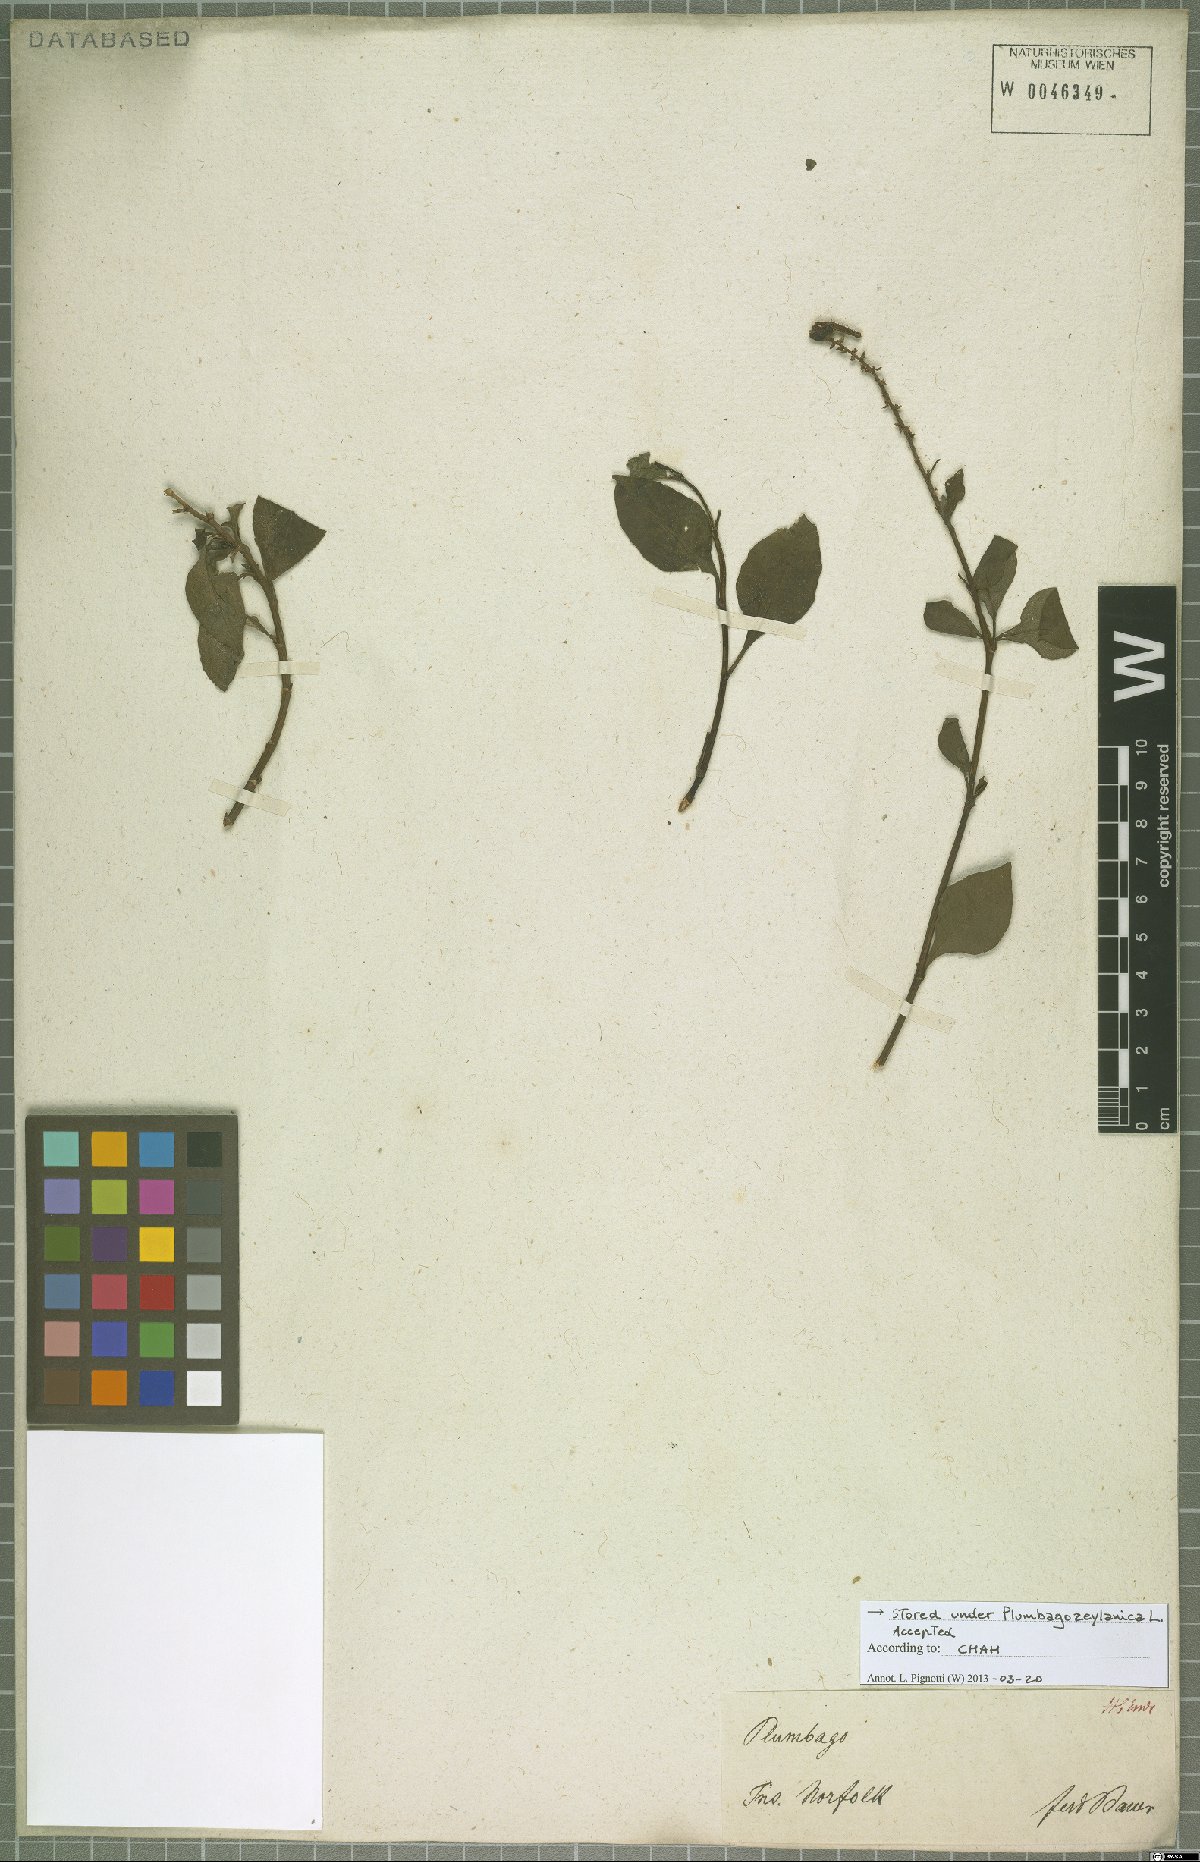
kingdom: Plantae
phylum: Tracheophyta
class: Magnoliopsida
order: Caryophyllales
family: Plumbaginaceae
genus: Plumbago
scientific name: Plumbago zeylanica
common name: Doctorbush
